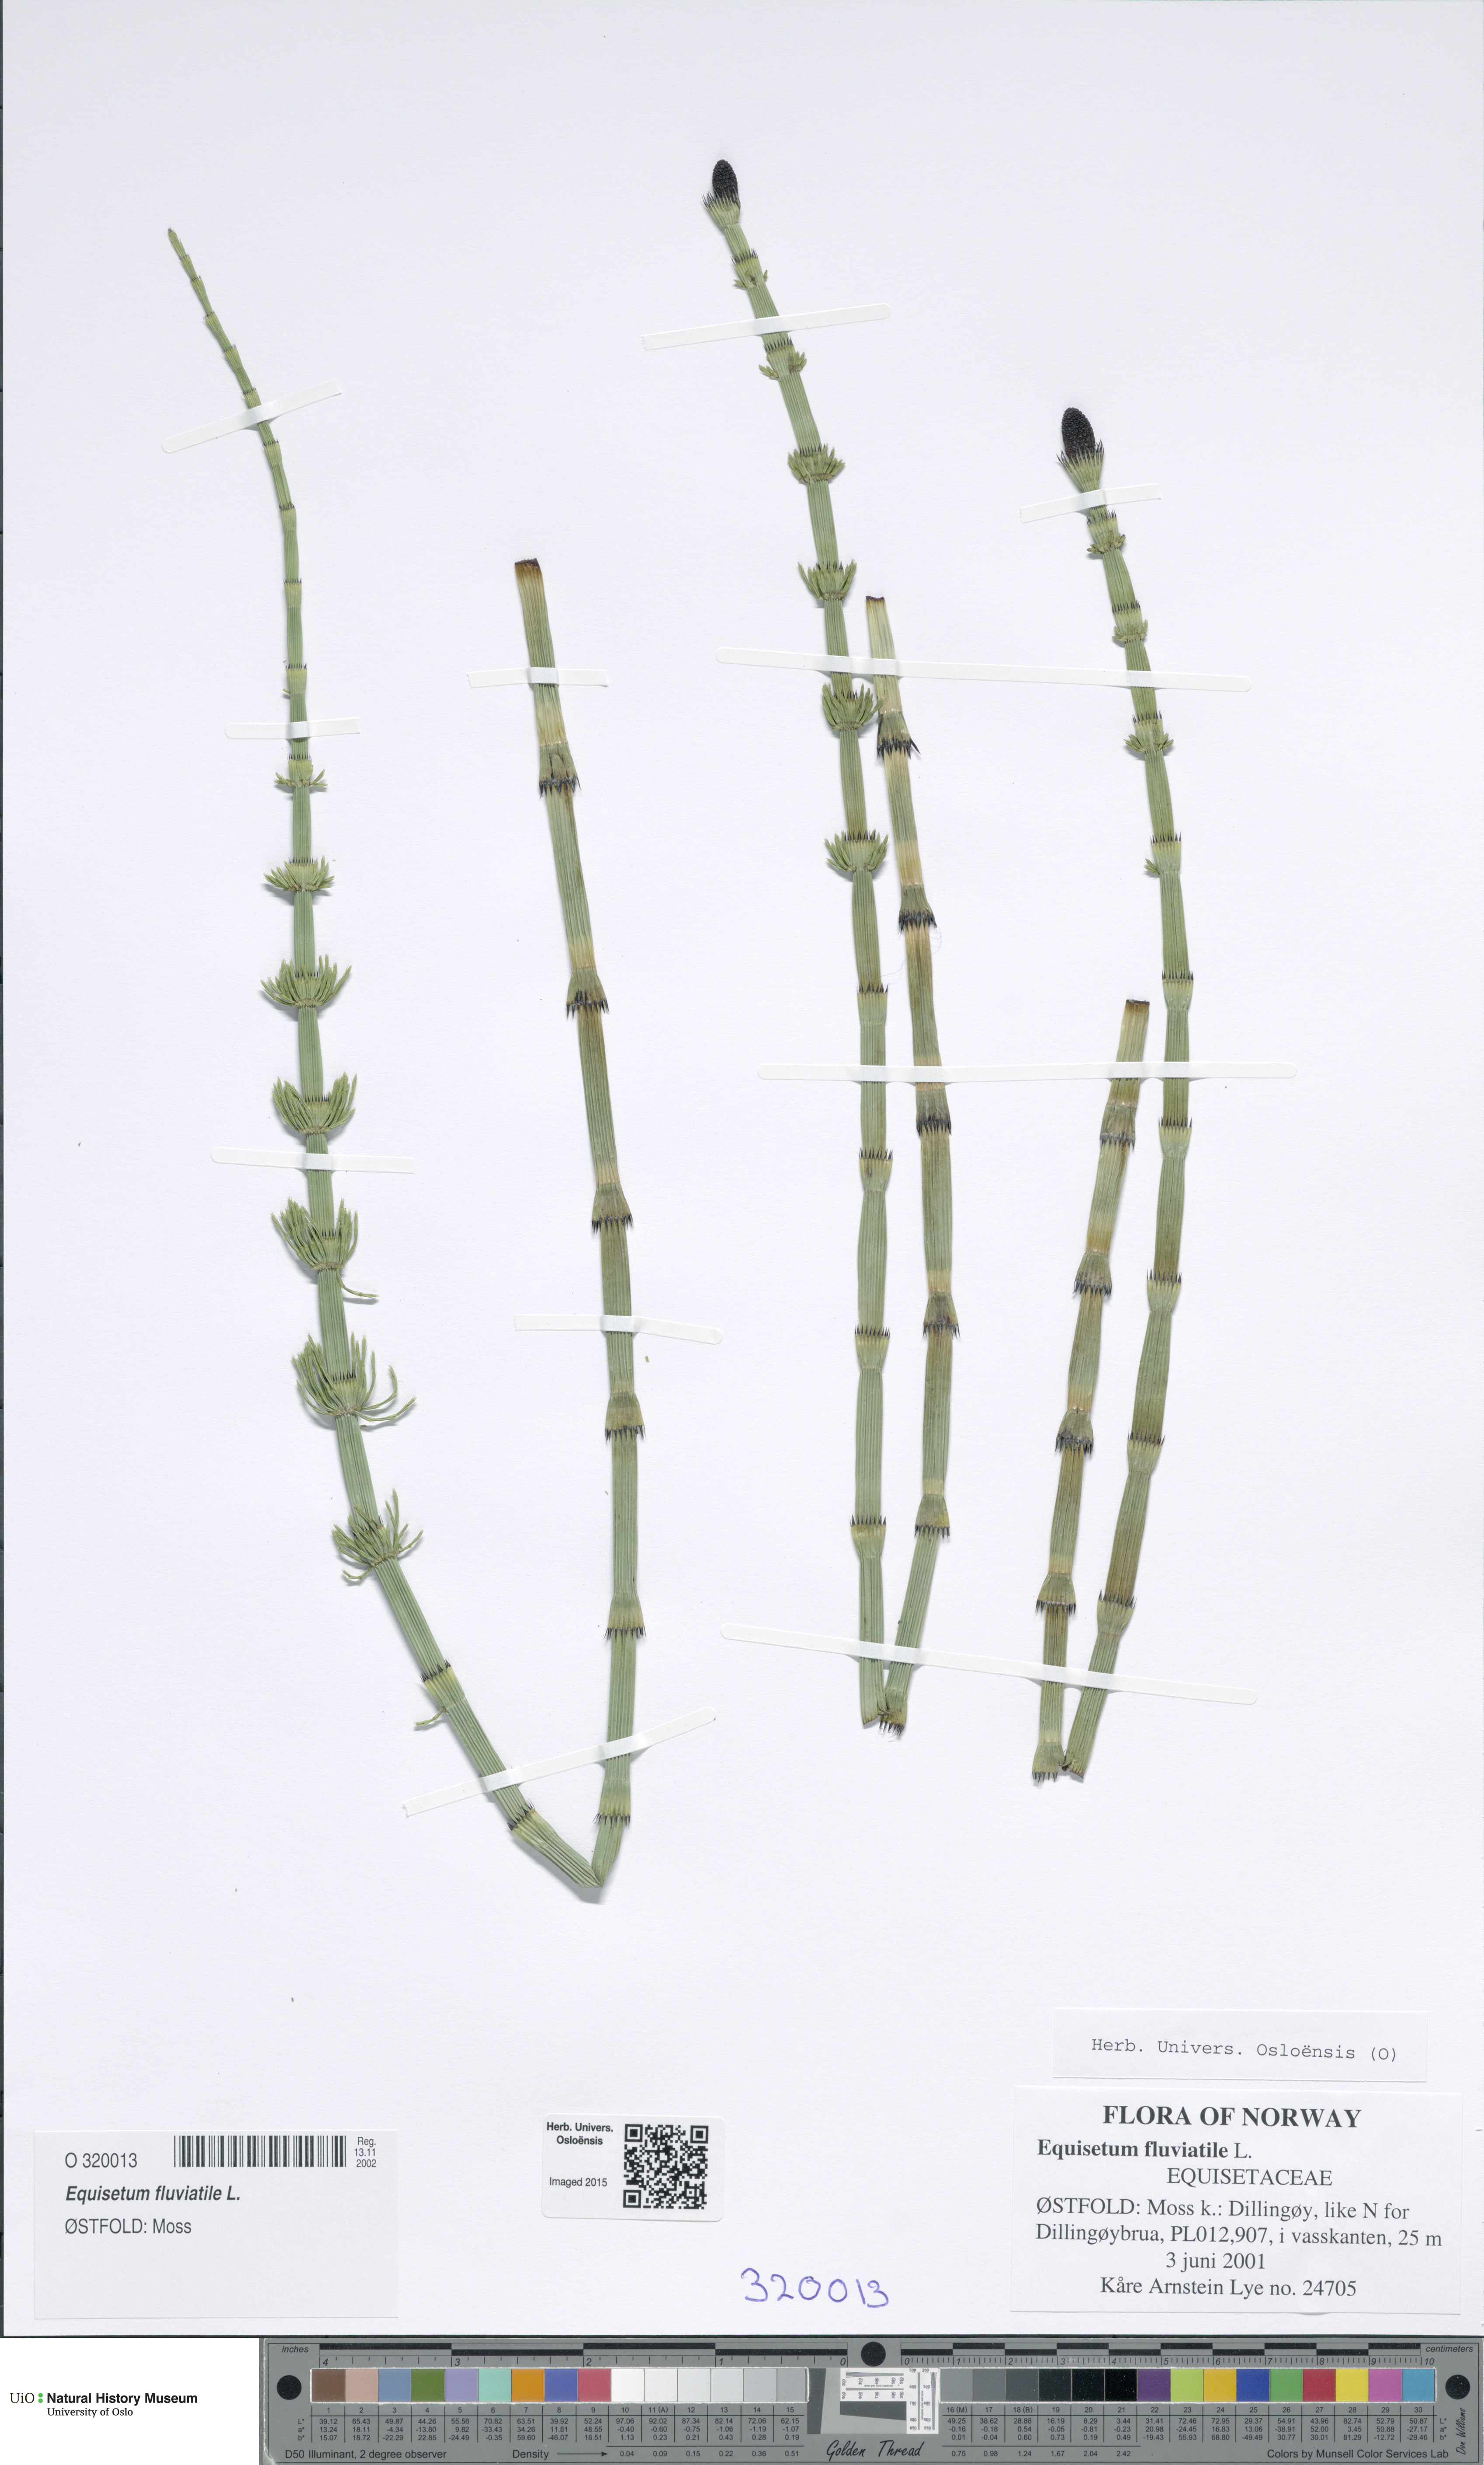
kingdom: Plantae
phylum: Tracheophyta
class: Polypodiopsida
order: Equisetales
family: Equisetaceae
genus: Equisetum
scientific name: Equisetum fluviatile
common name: Water horsetail
